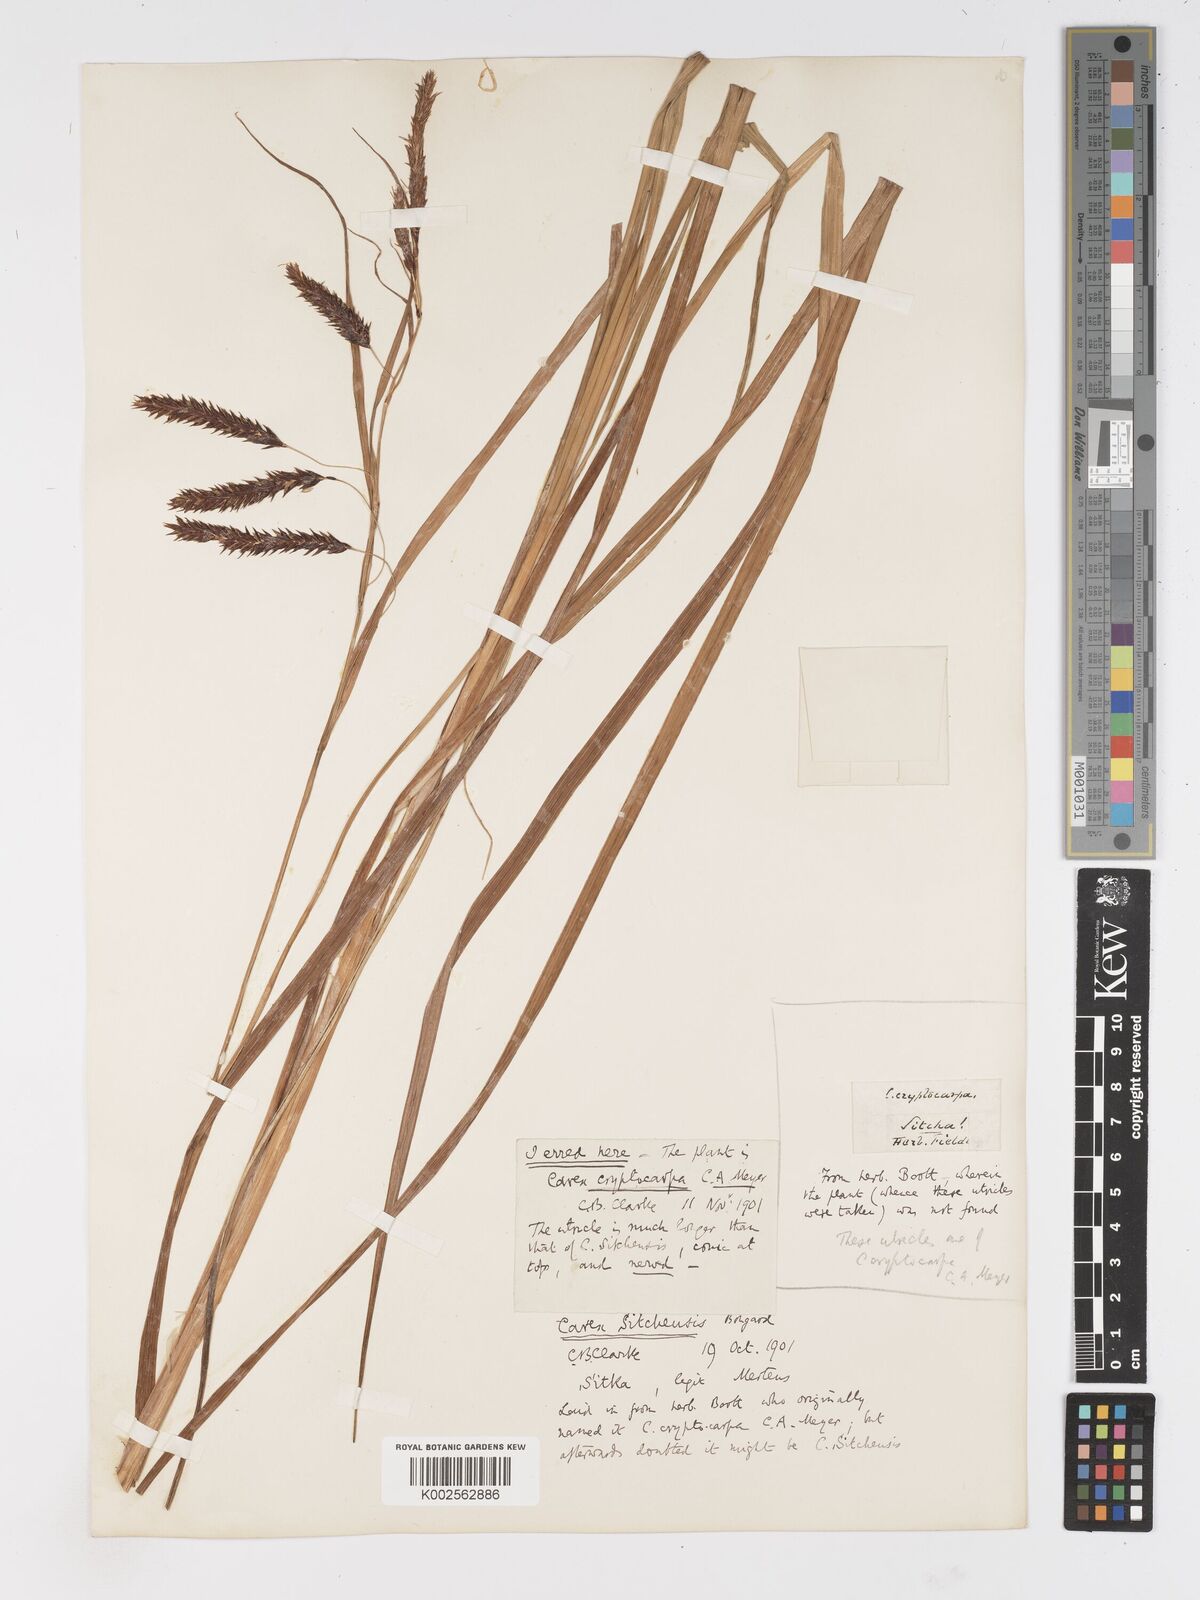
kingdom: Plantae
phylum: Tracheophyta
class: Liliopsida
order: Poales
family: Cyperaceae
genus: Carex
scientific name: Carex lyngbyei
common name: Lyngbye's sedge
